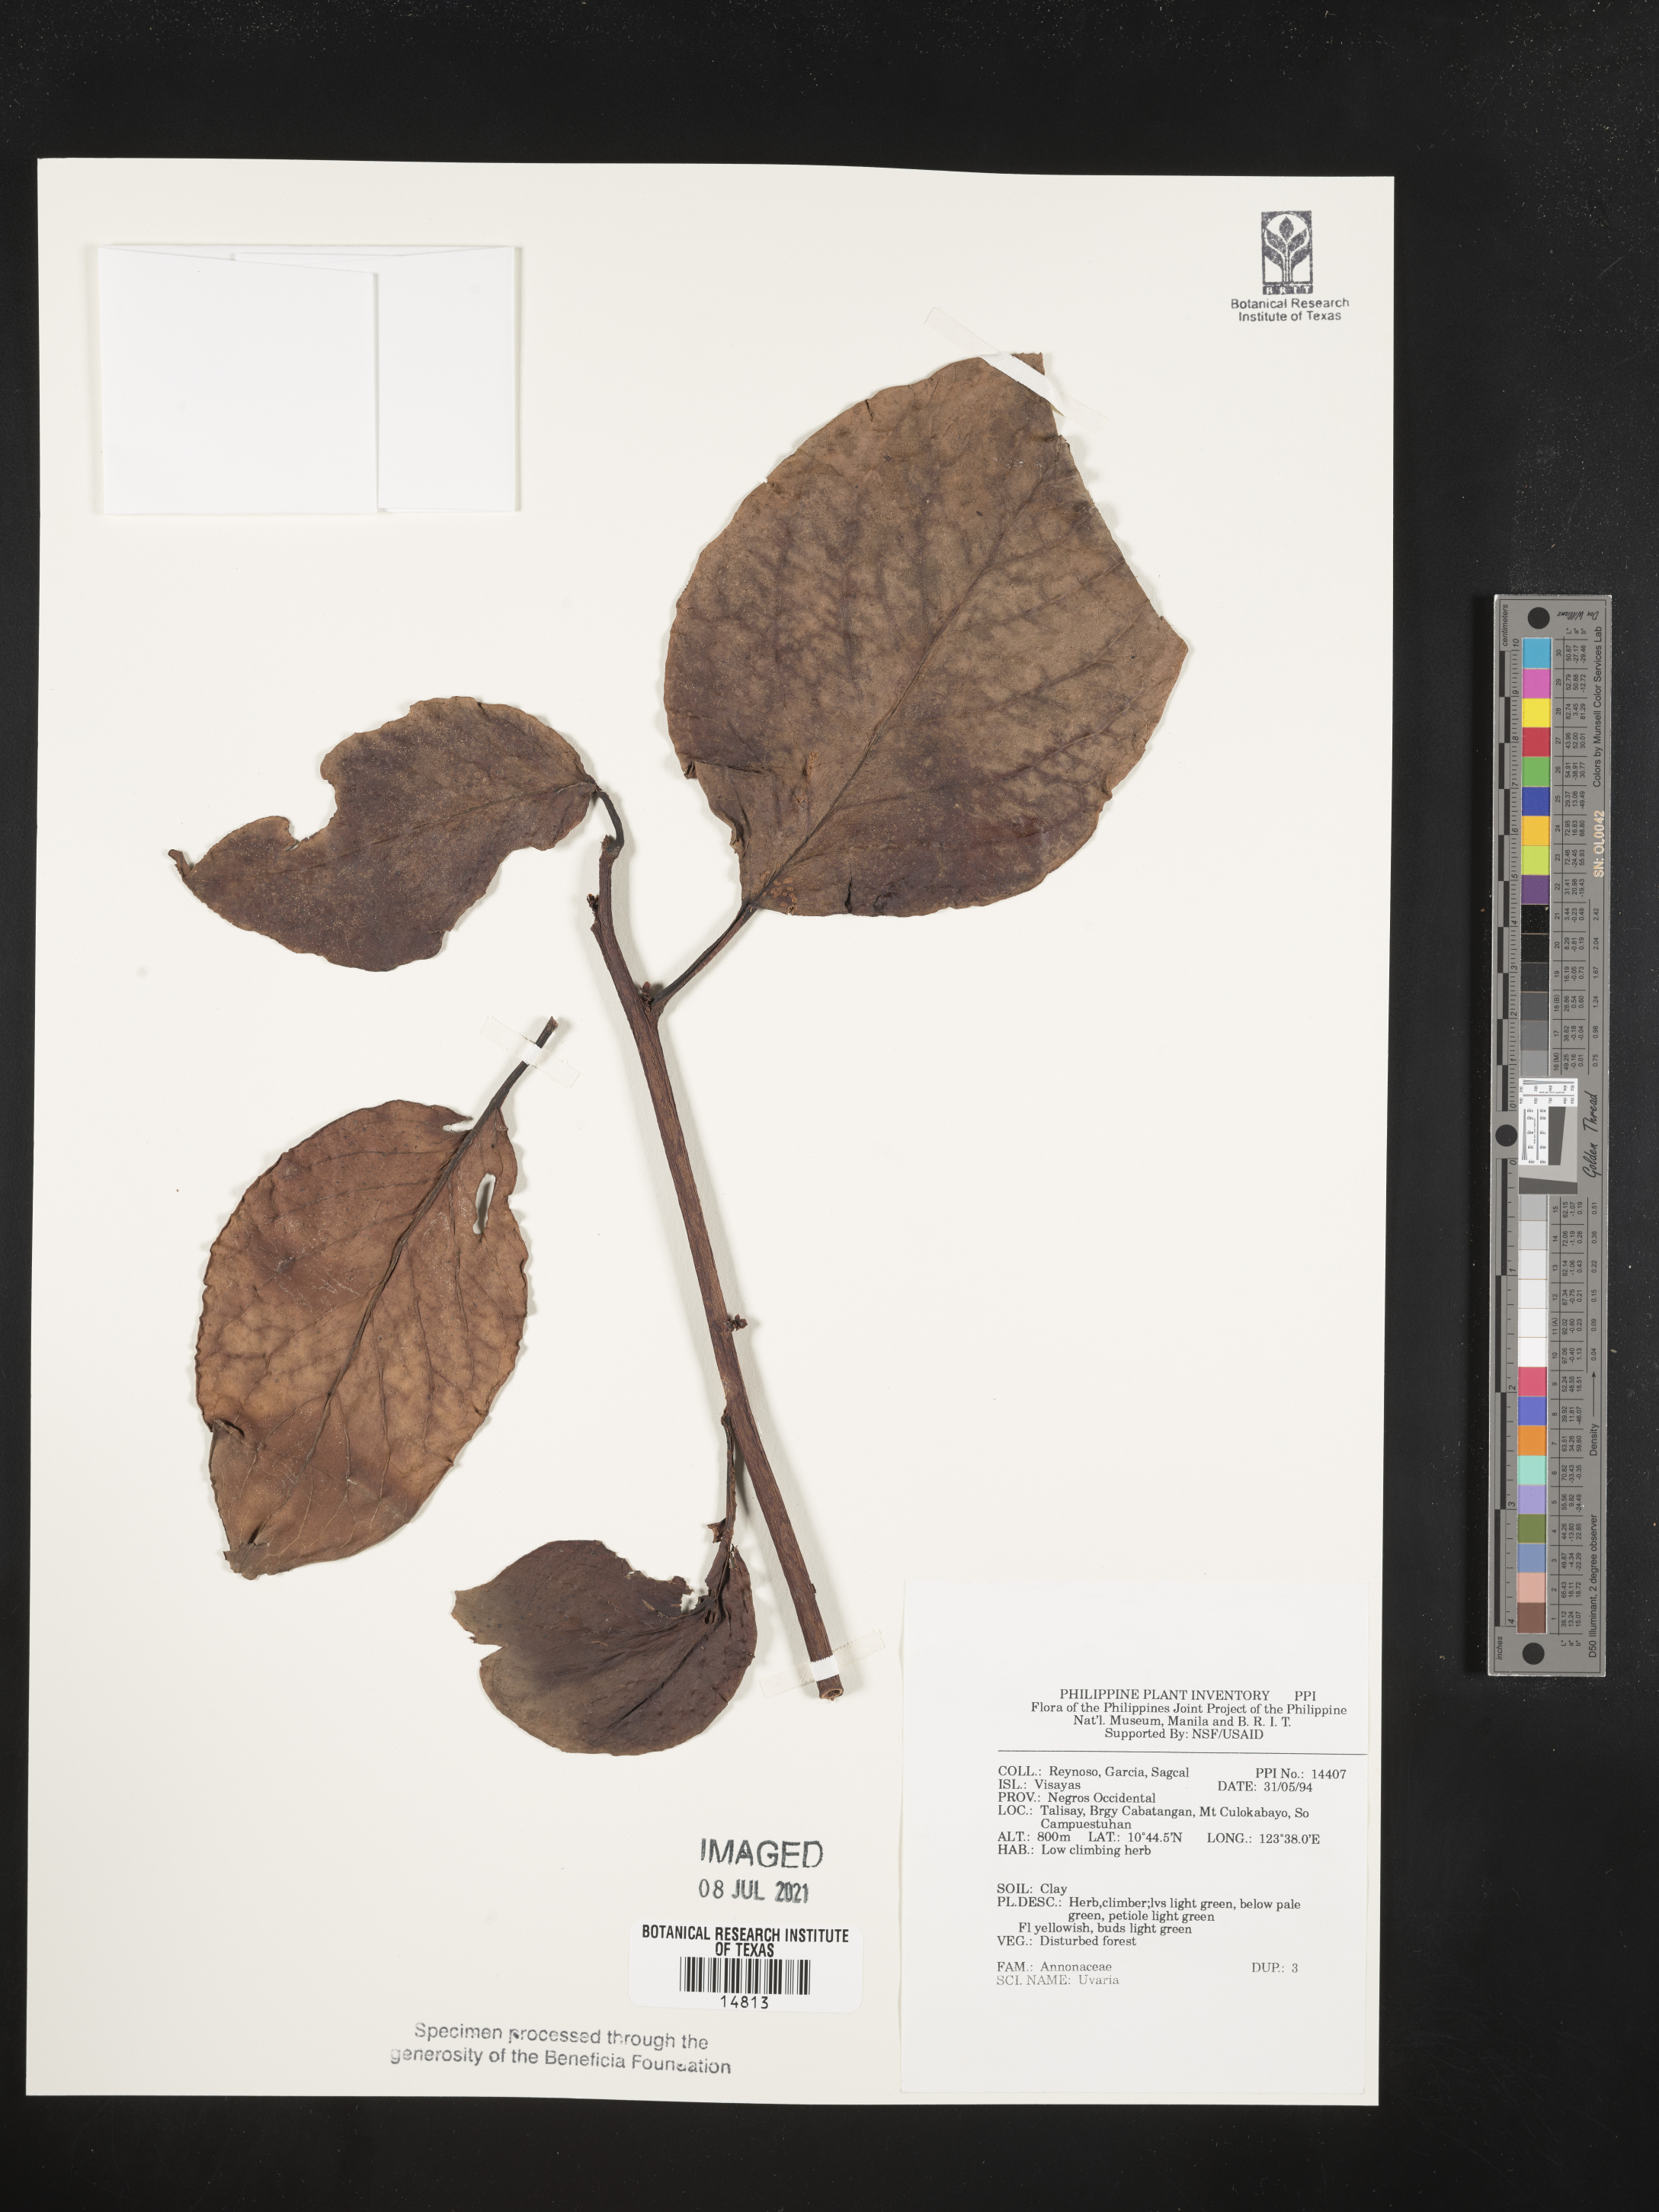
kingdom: Plantae
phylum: Tracheophyta
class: Magnoliopsida
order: Magnoliales
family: Annonaceae
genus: Uvaria
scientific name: Uvaria
